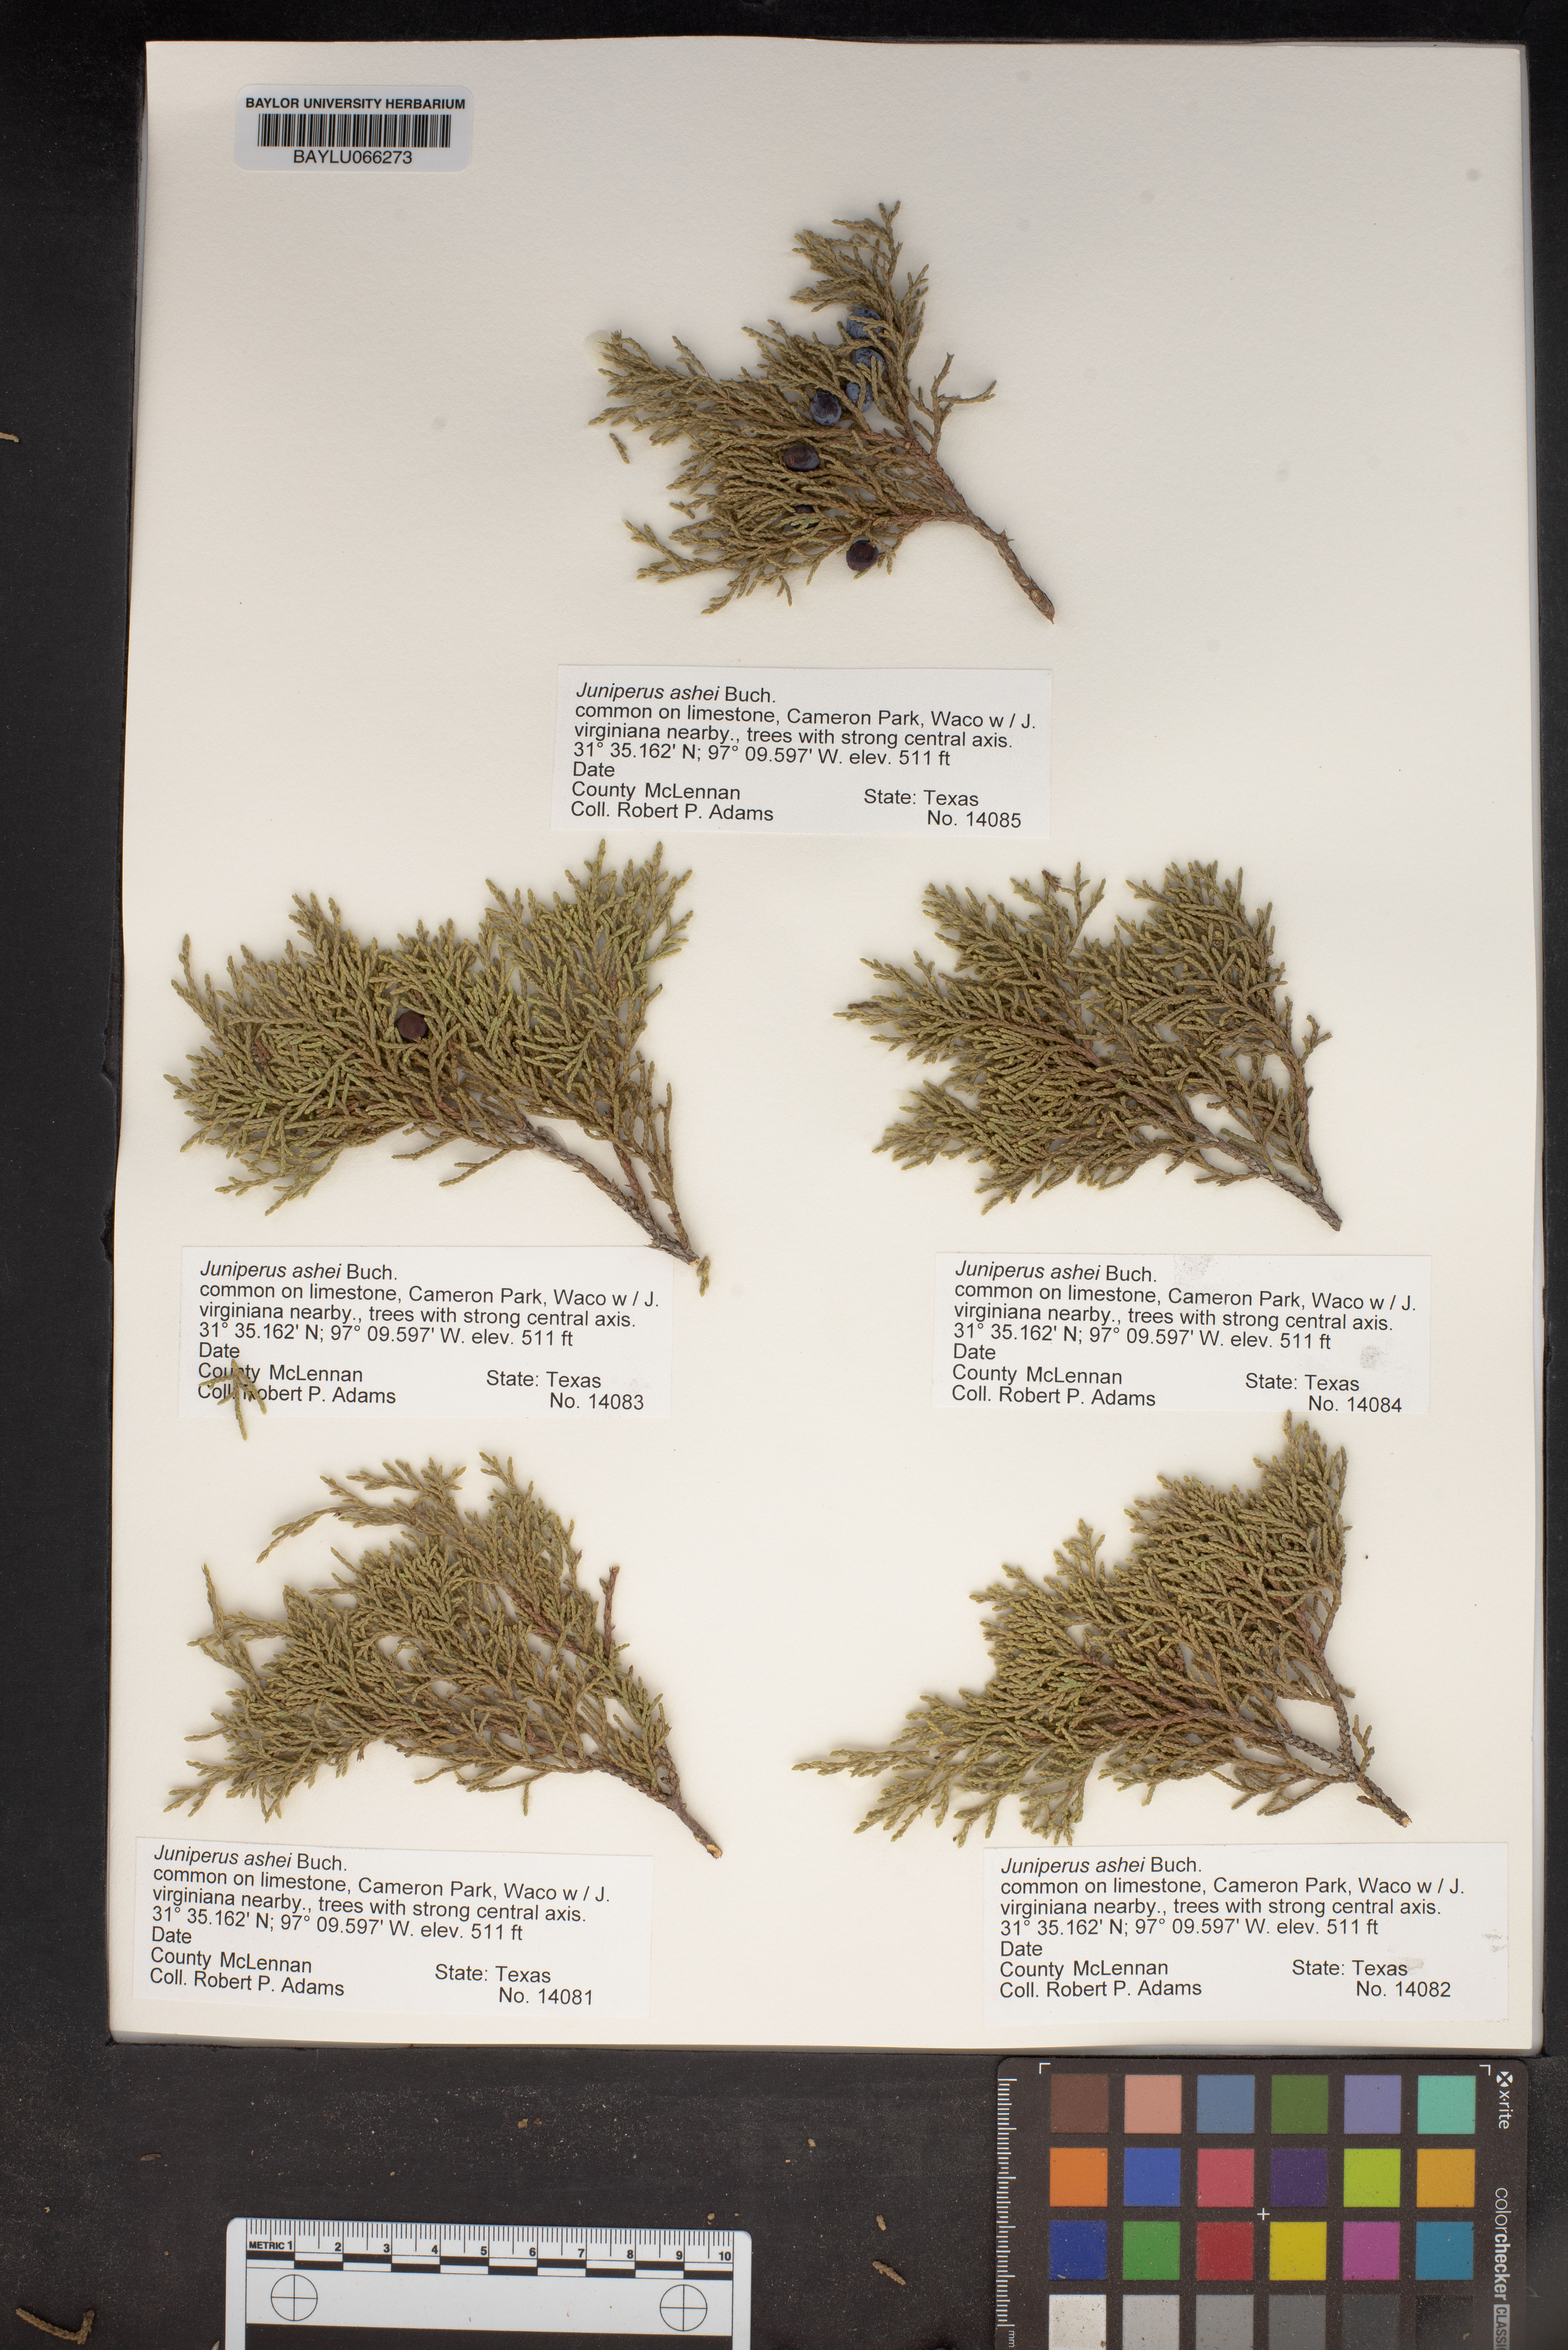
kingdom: Plantae
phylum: Tracheophyta
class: Pinopsida
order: Pinales
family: Cupressaceae
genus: Juniperus
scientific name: Juniperus ashei
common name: Mexican juniper
